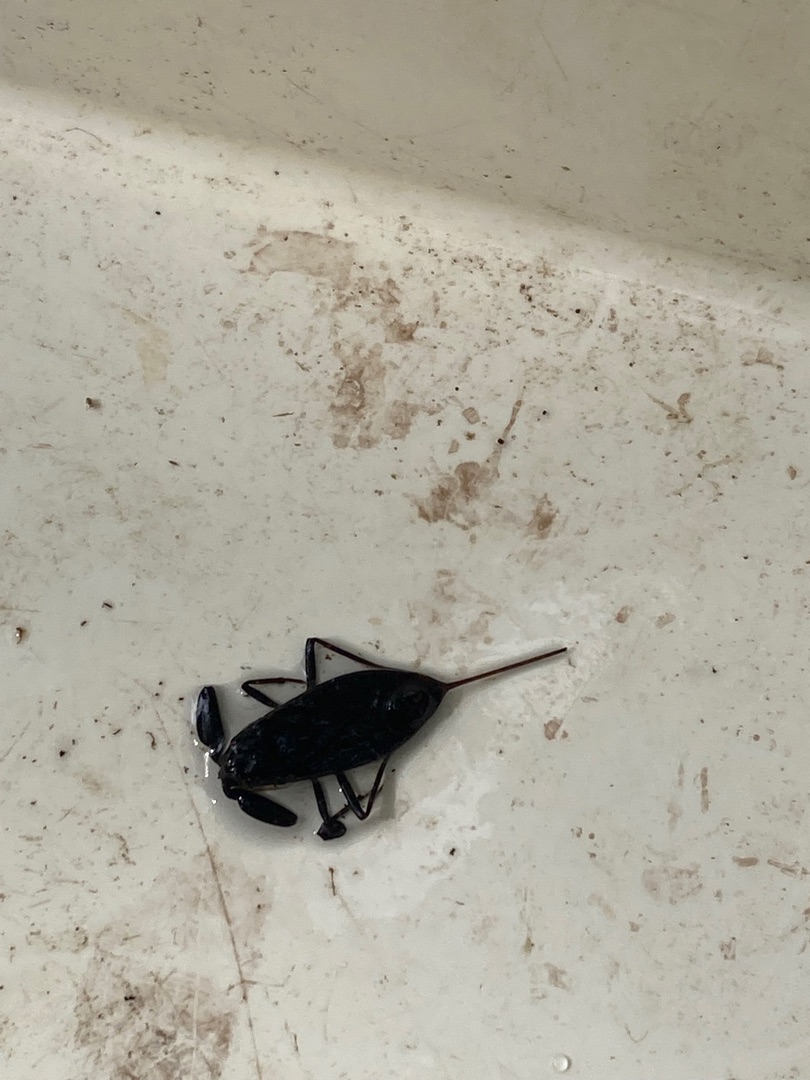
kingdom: Animalia
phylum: Arthropoda
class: Insecta
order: Hemiptera
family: Nepidae
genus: Nepa
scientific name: Nepa cinerea
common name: Skorpiontæge
